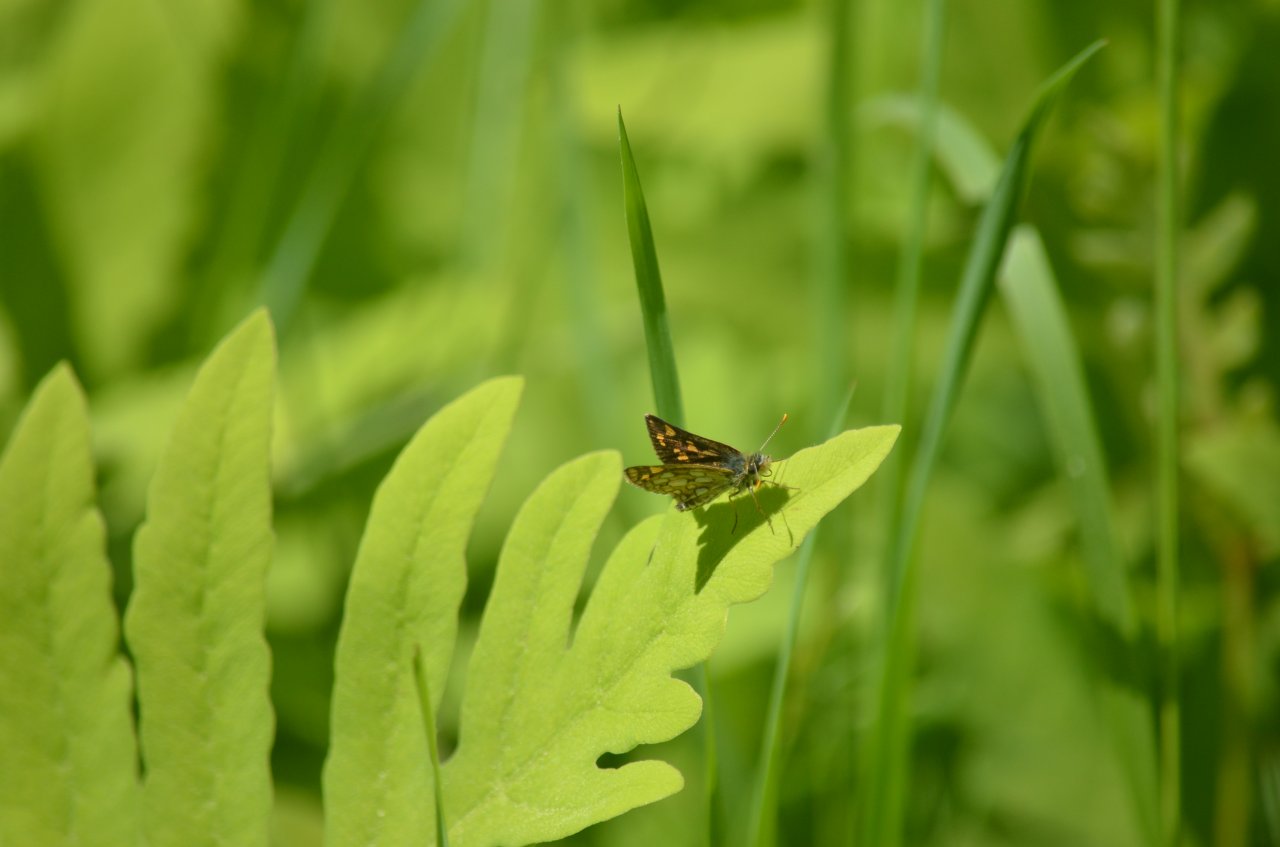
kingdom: Animalia
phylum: Arthropoda
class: Insecta
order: Lepidoptera
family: Hesperiidae
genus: Carterocephalus
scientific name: Carterocephalus palaemon
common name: Chequered Skipper
